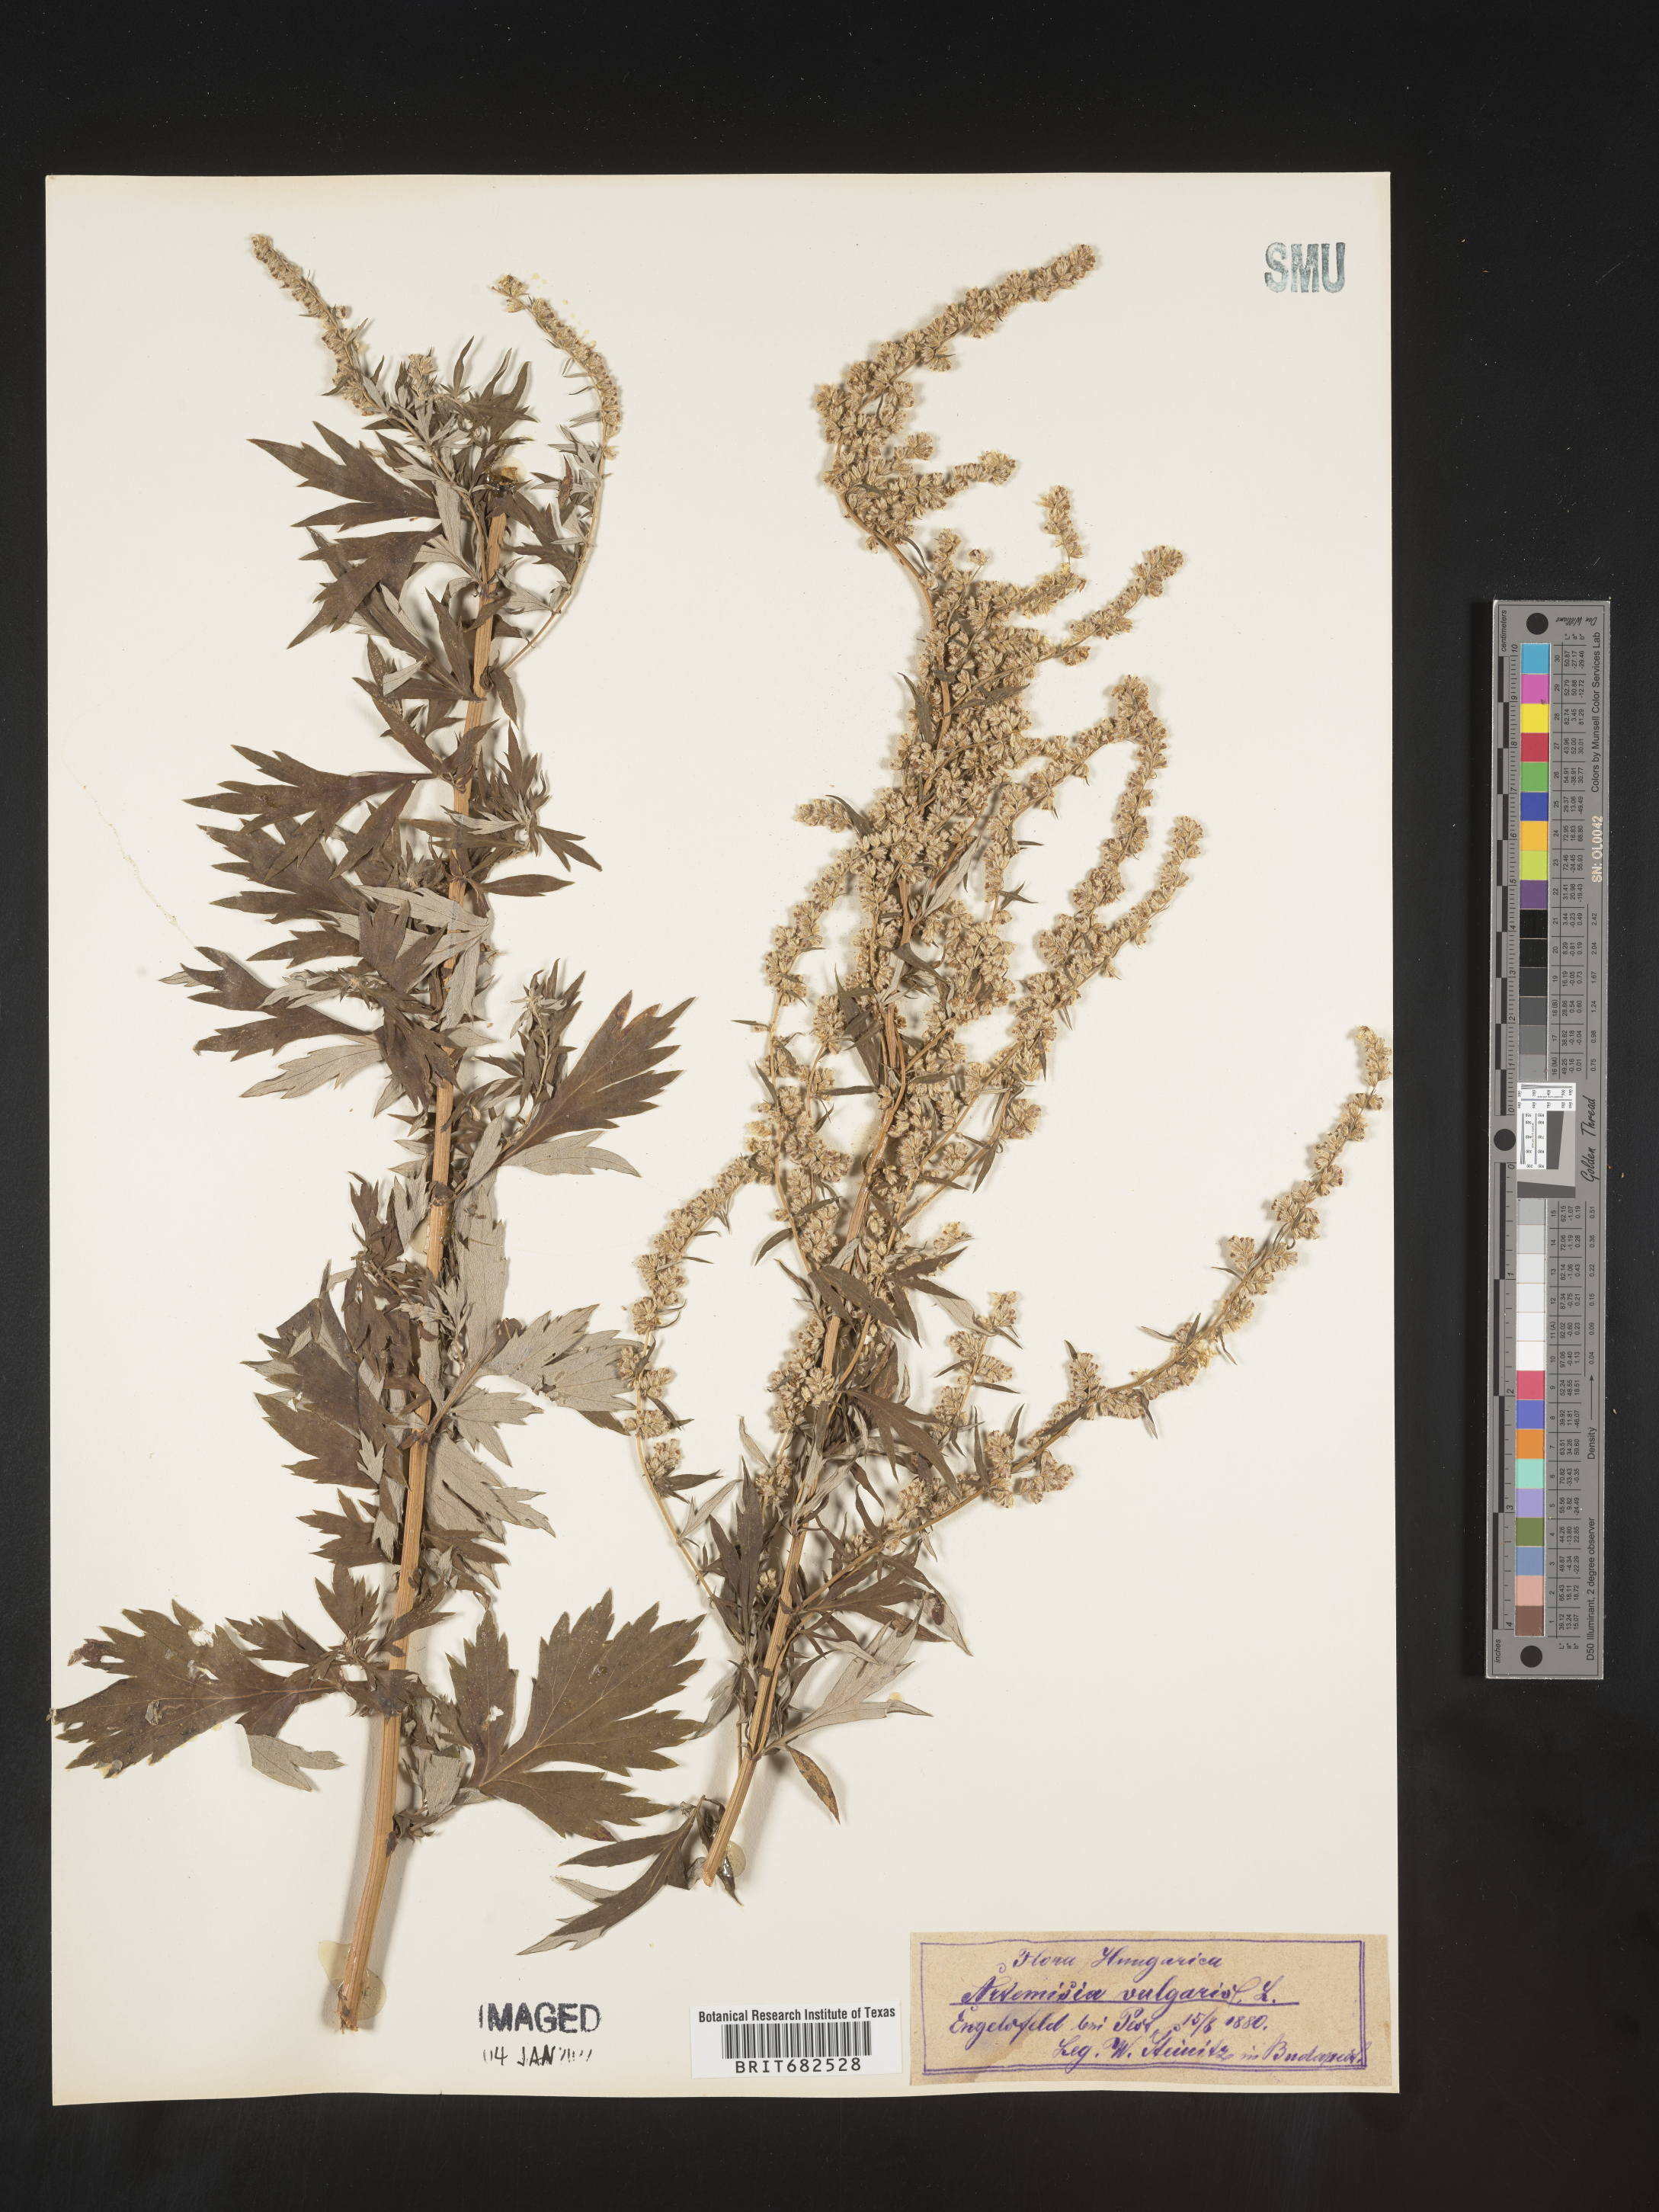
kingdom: Plantae
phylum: Tracheophyta
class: Magnoliopsida
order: Asterales
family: Asteraceae
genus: Artemisia
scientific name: Artemisia
